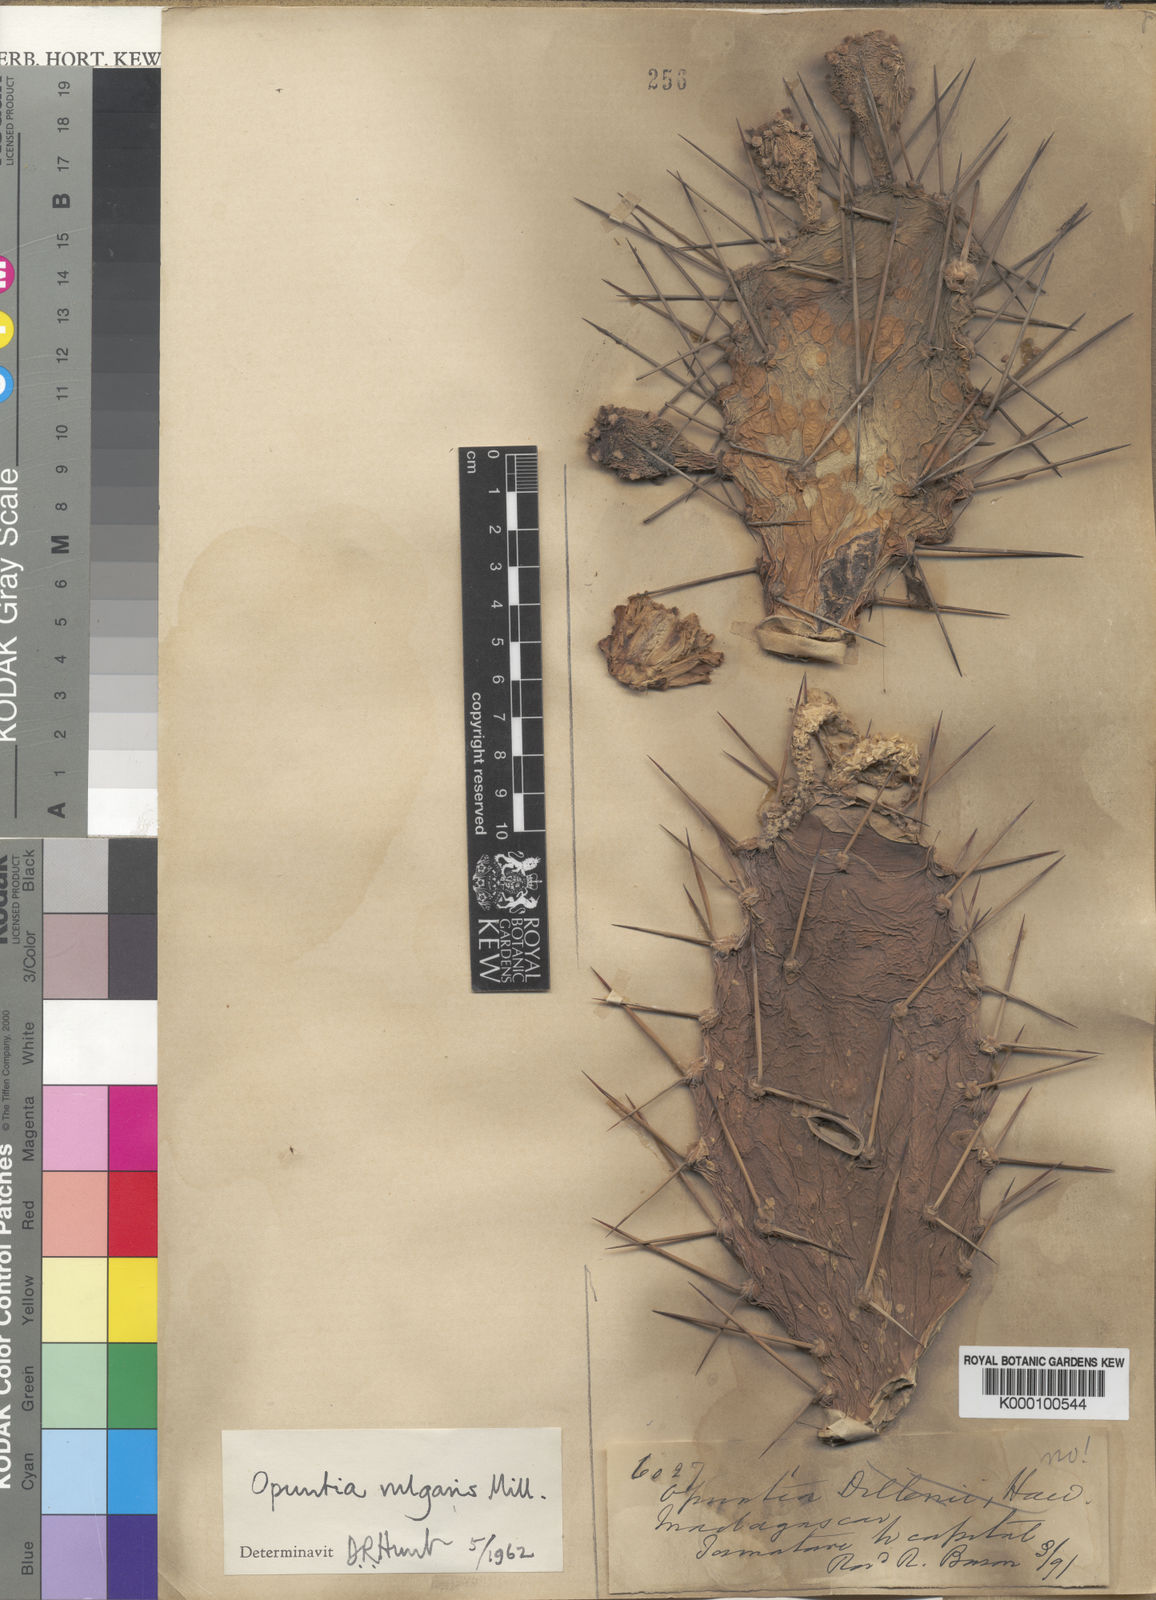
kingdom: Plantae
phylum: Tracheophyta
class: Magnoliopsida
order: Caryophyllales
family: Cactaceae
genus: Opuntia
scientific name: Opuntia monacantha
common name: Common pricklypear
